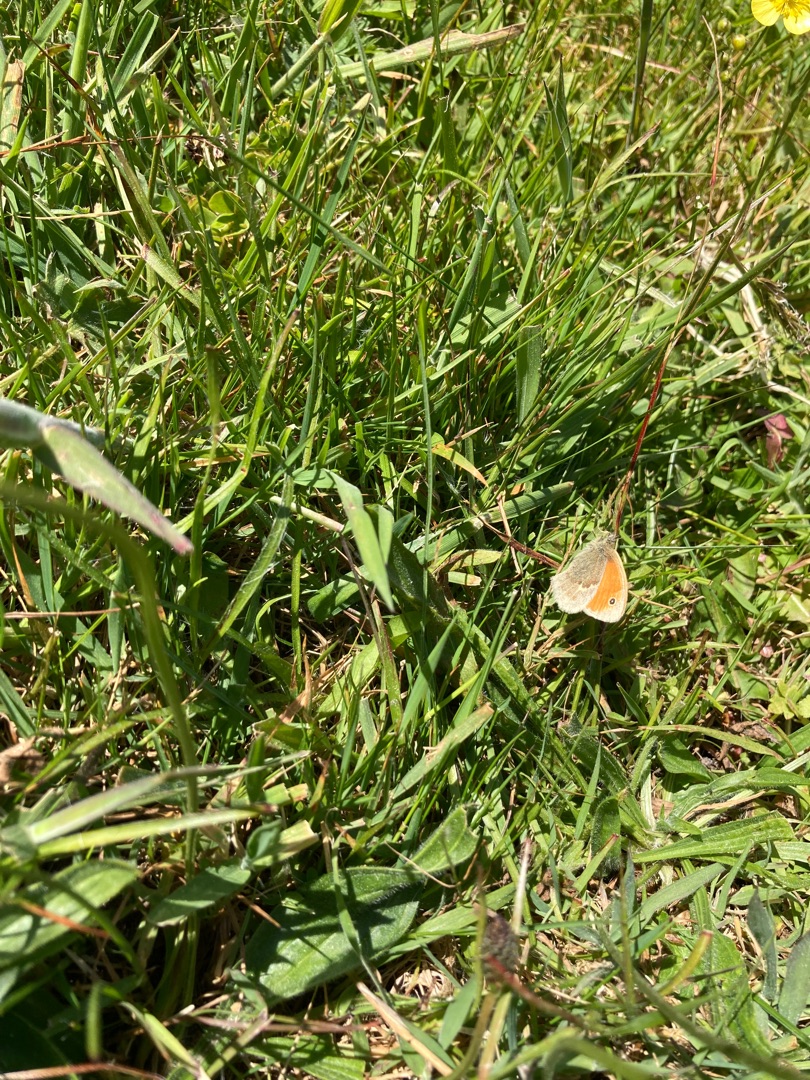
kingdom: Animalia
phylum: Arthropoda
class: Insecta
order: Lepidoptera
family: Nymphalidae
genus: Coenonympha
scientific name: Coenonympha pamphilus
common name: Okkergul randøje
